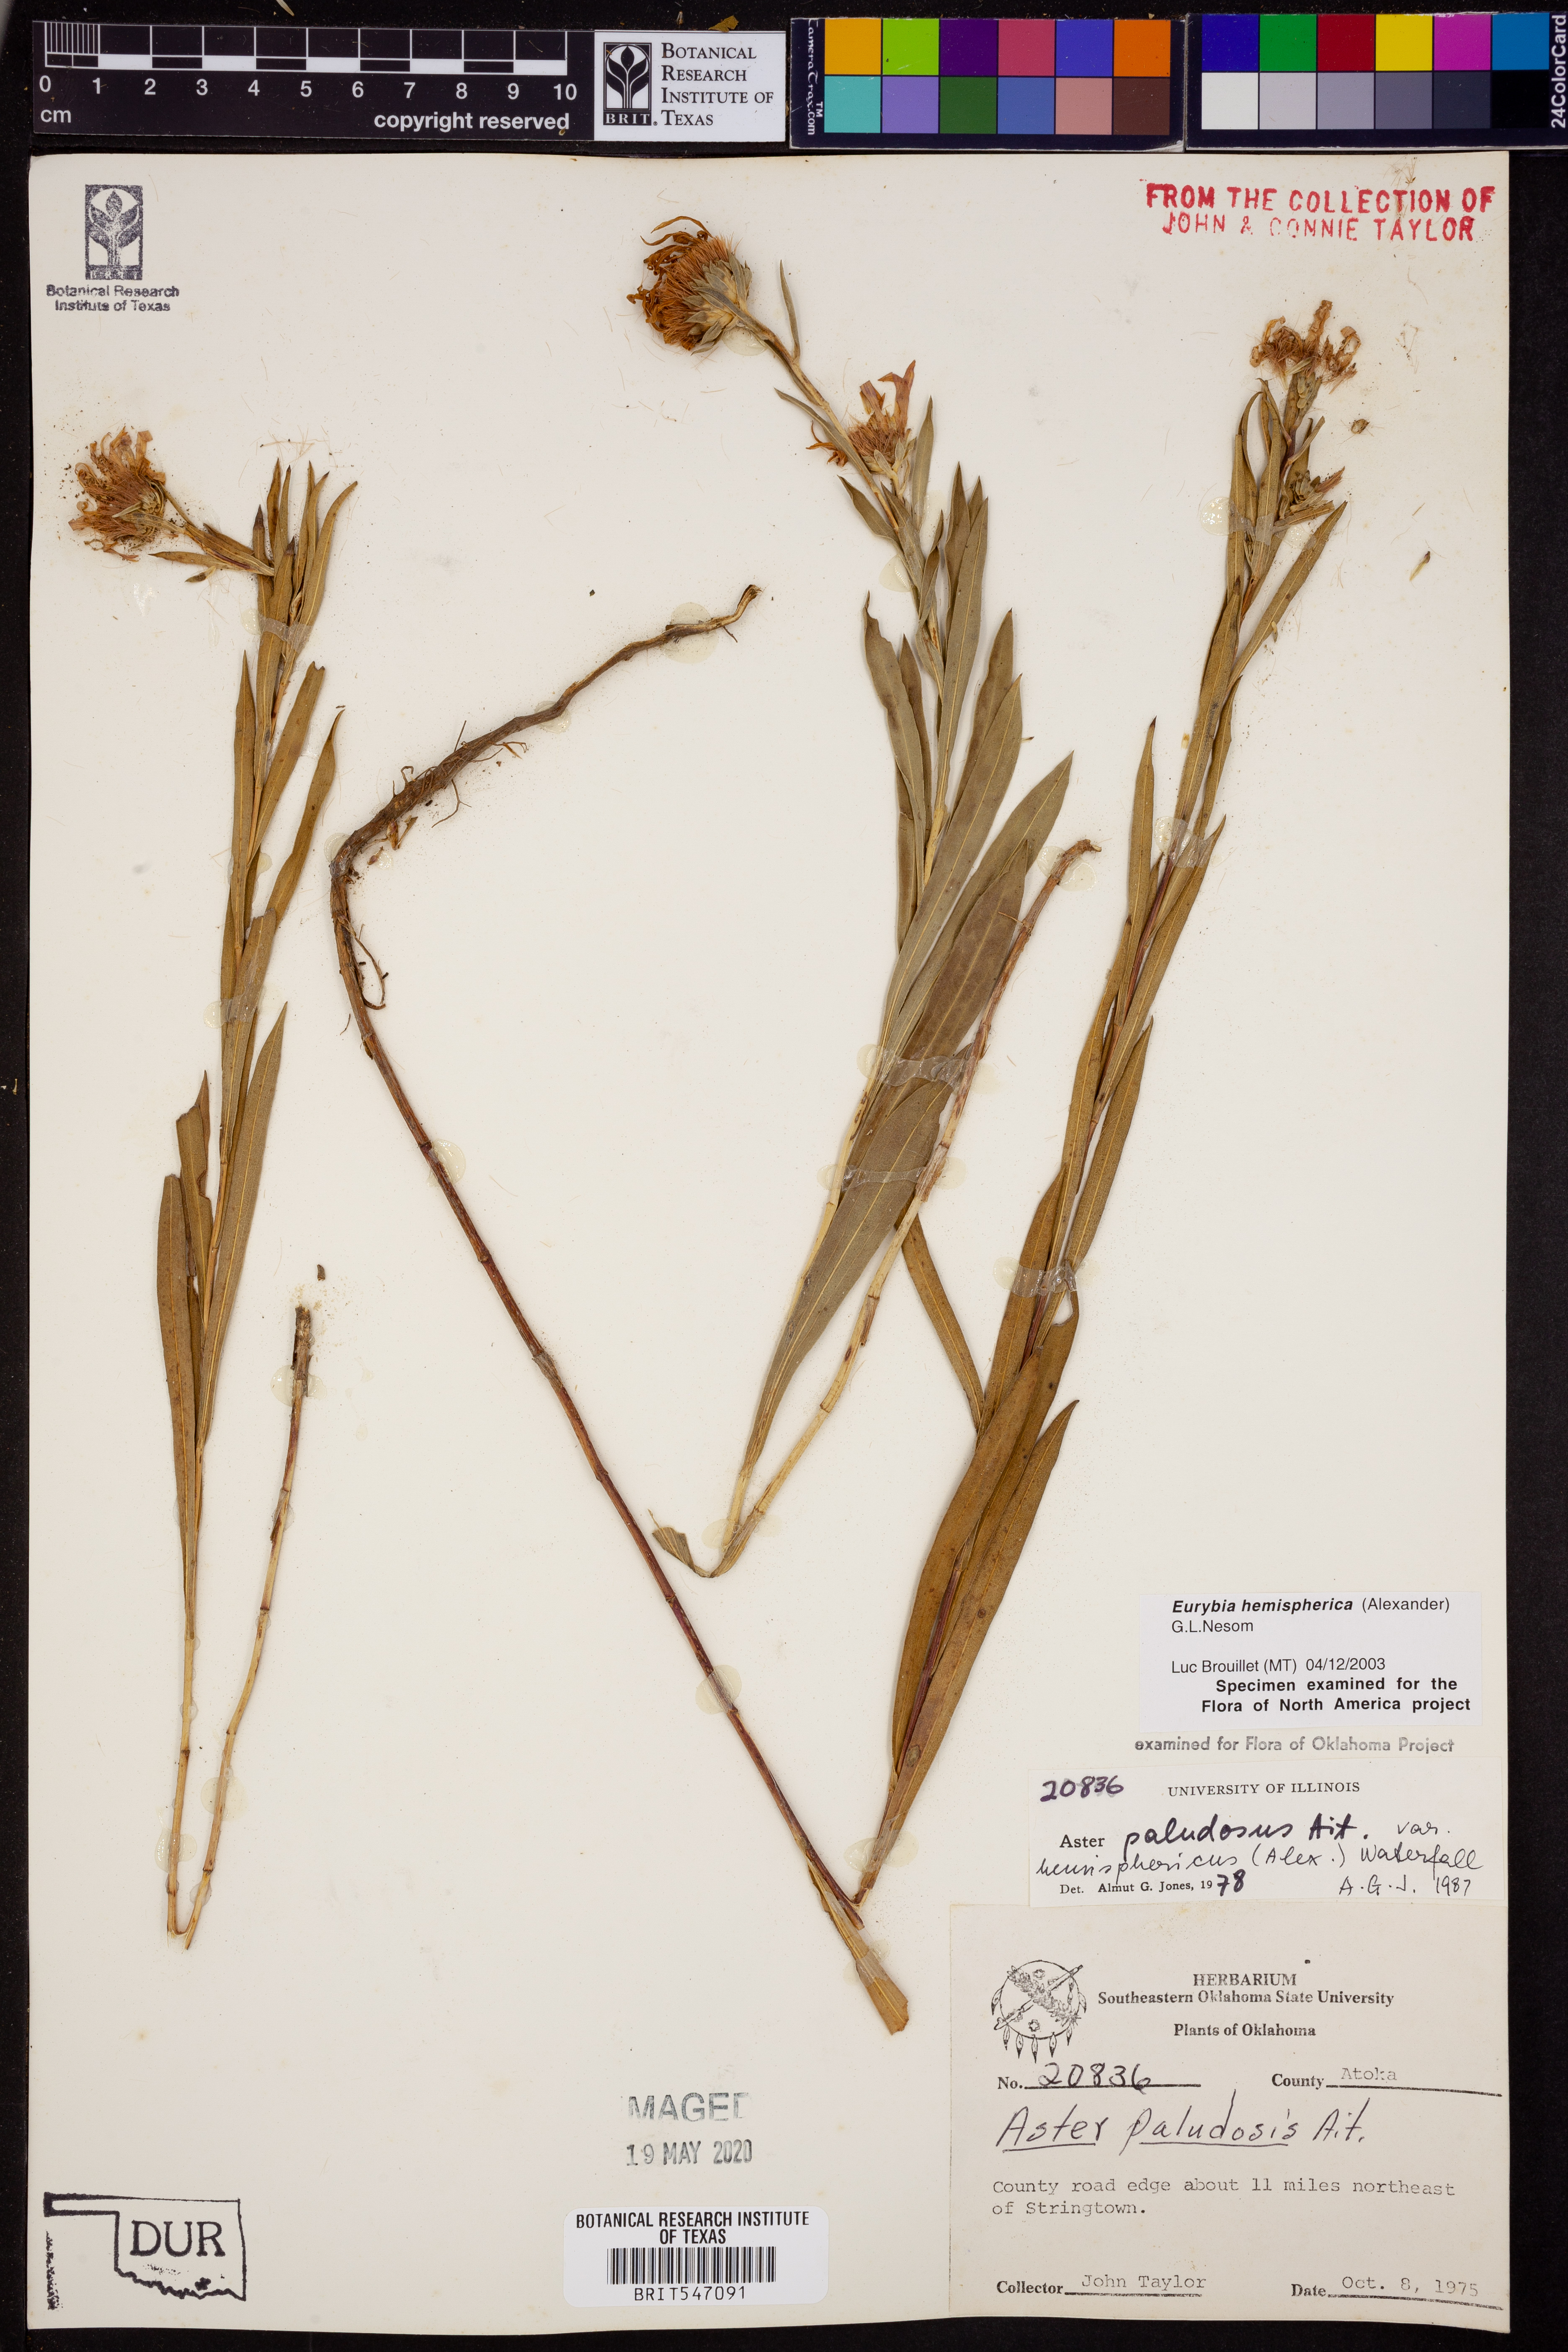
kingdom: Plantae
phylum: Tracheophyta
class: Magnoliopsida
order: Asterales
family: Asteraceae
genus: Eurybia
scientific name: Eurybia hemispherica
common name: Showy aster
